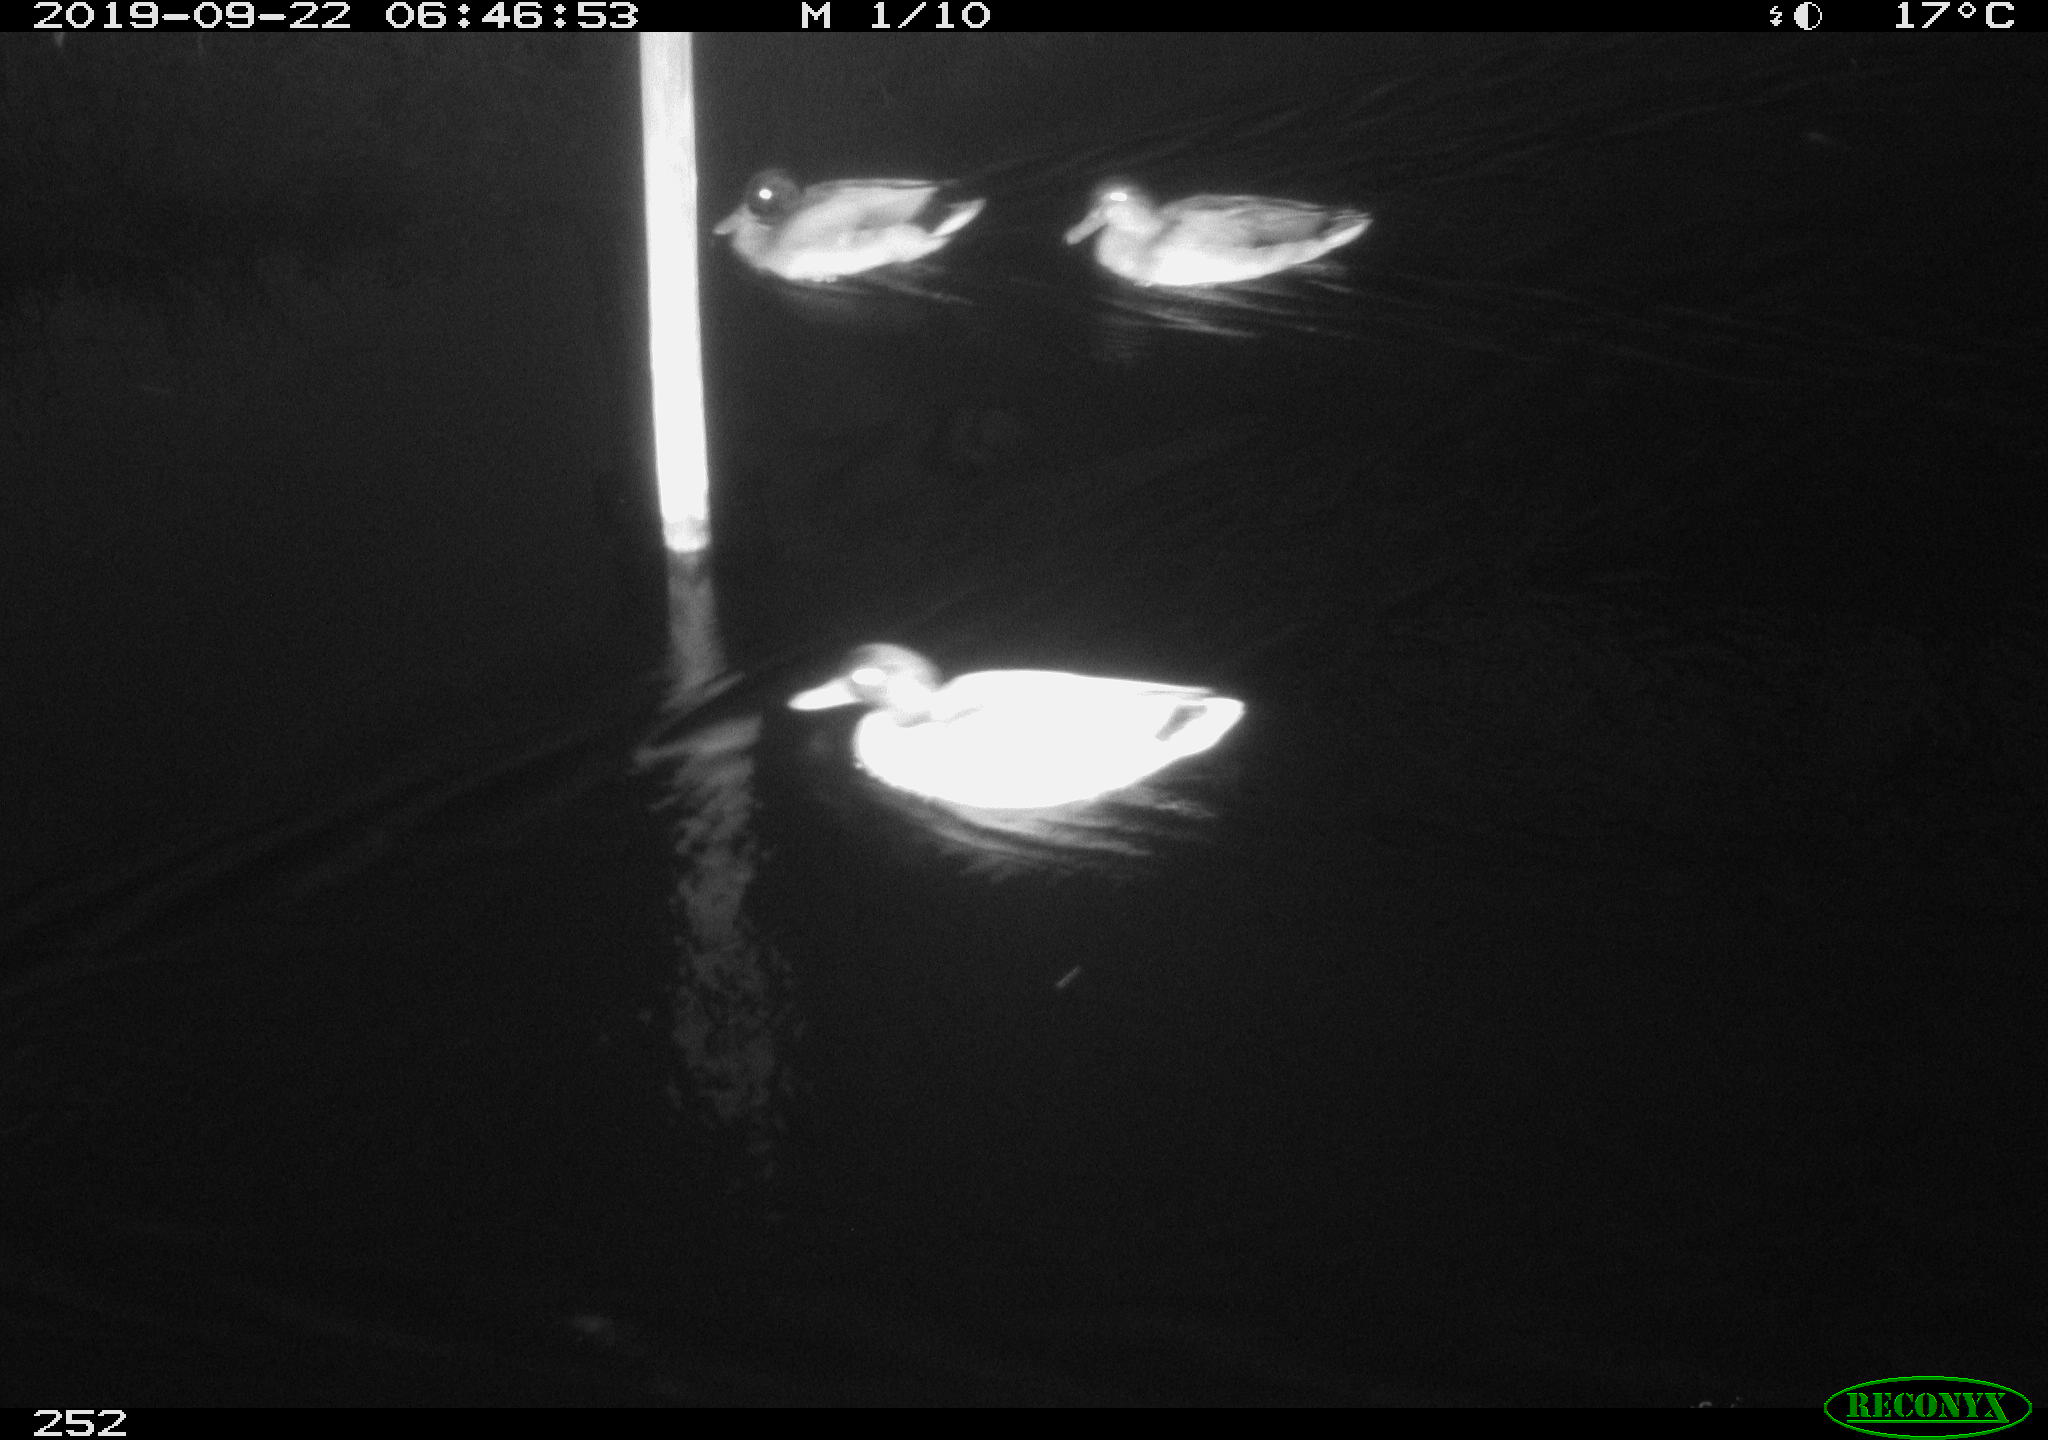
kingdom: Animalia
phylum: Chordata
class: Aves
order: Anseriformes
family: Anatidae
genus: Anas
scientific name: Anas platyrhynchos
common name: Mallard
